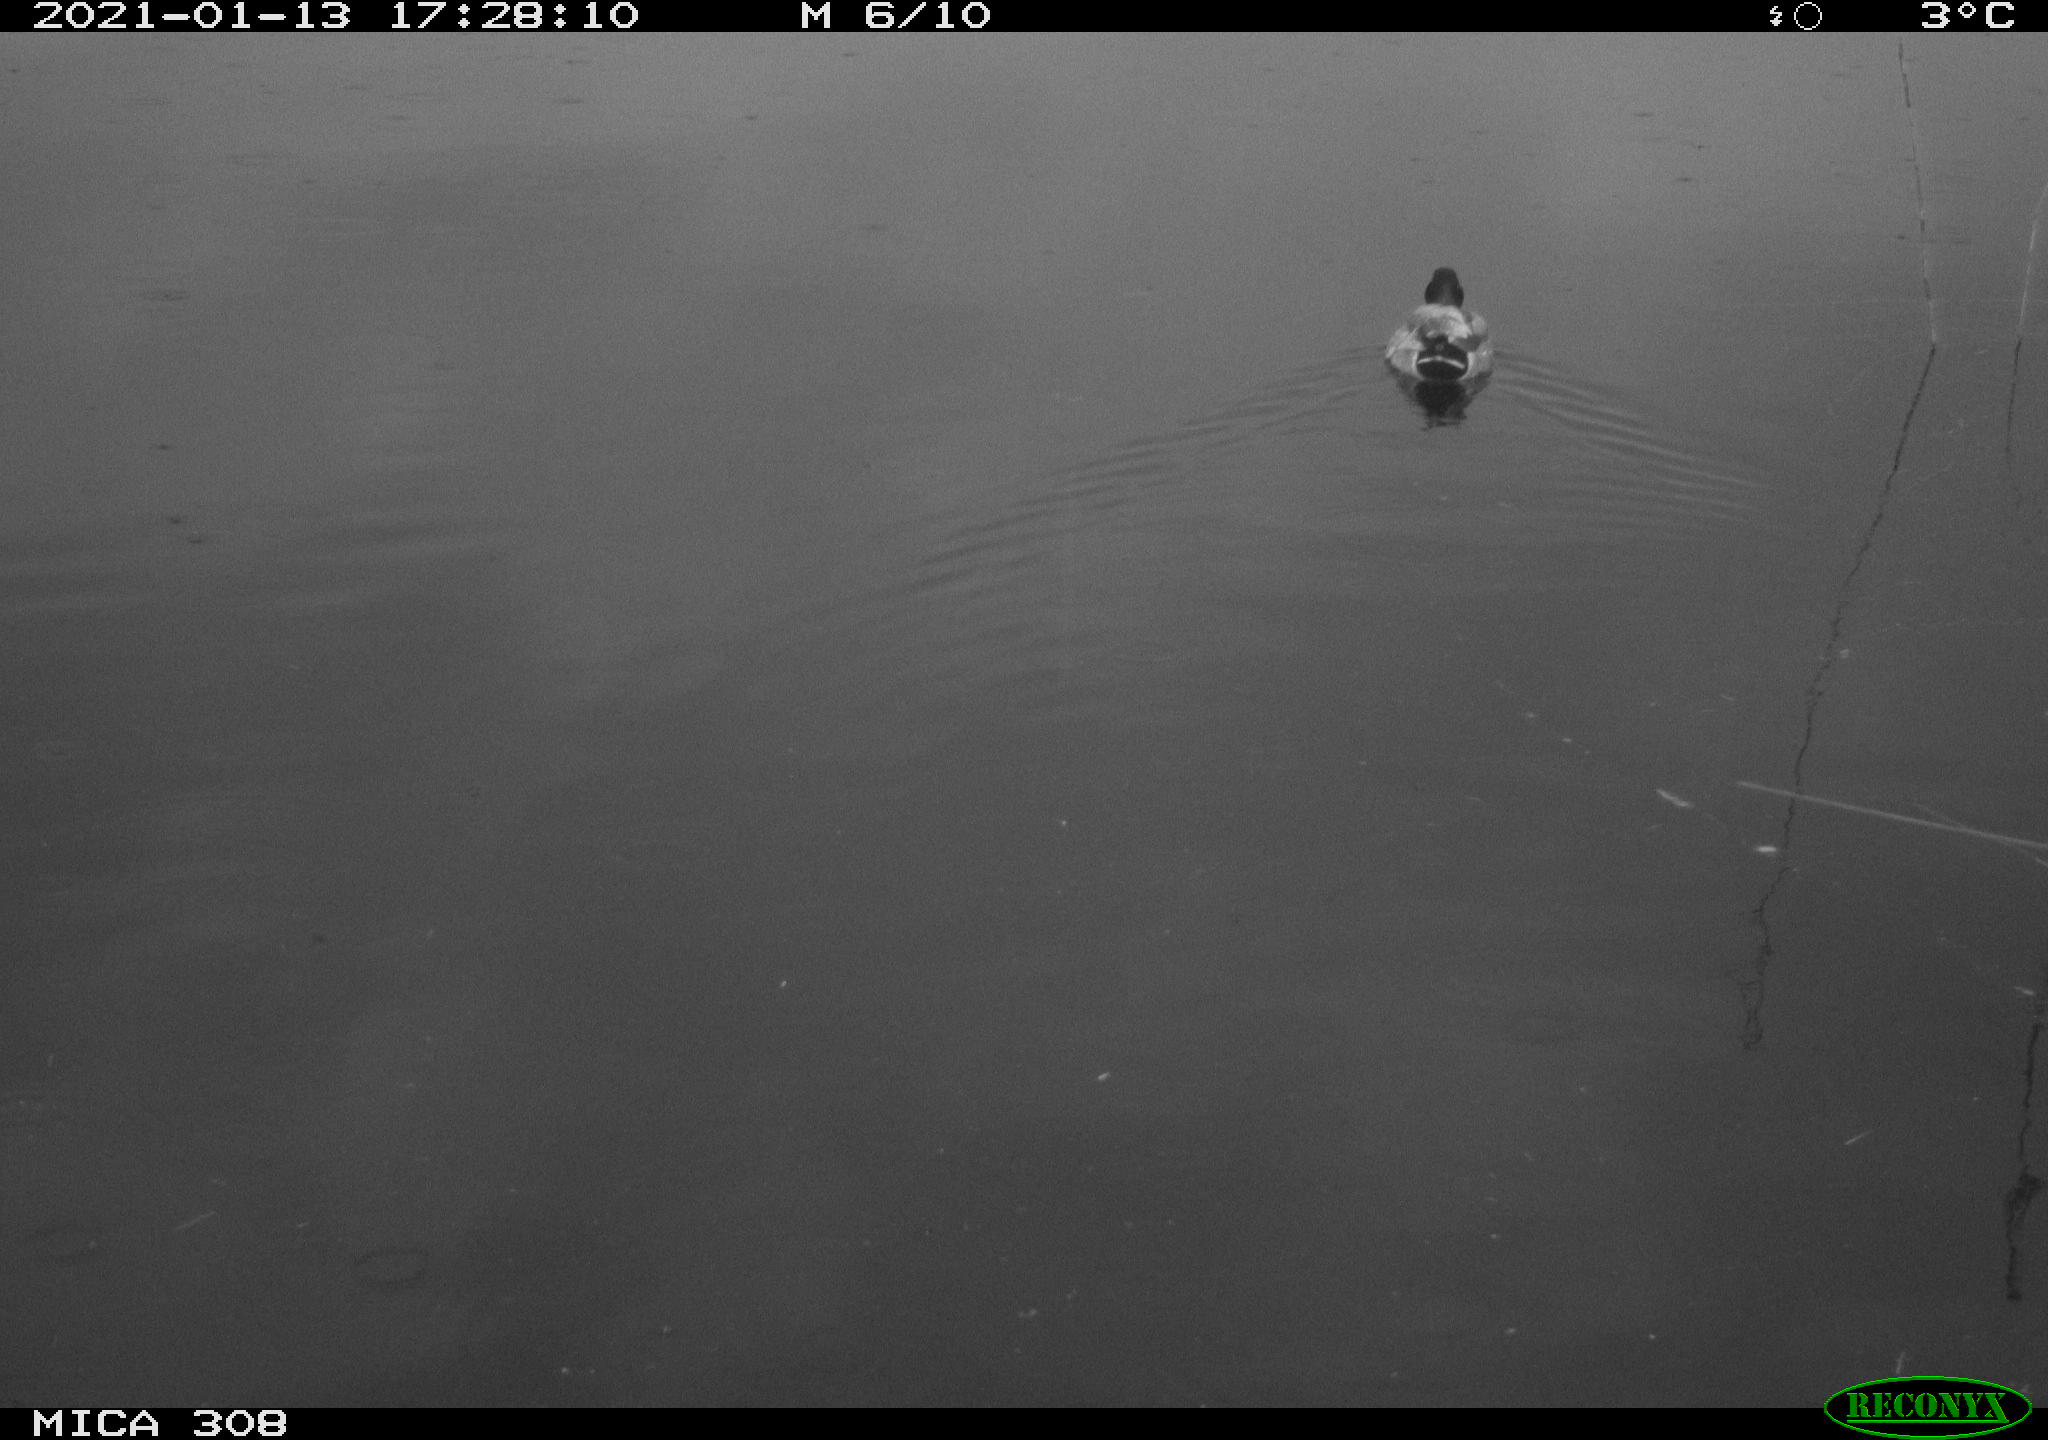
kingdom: Animalia
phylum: Chordata
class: Aves
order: Anseriformes
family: Anatidae
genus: Anas
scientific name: Anas platyrhynchos
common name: Mallard
